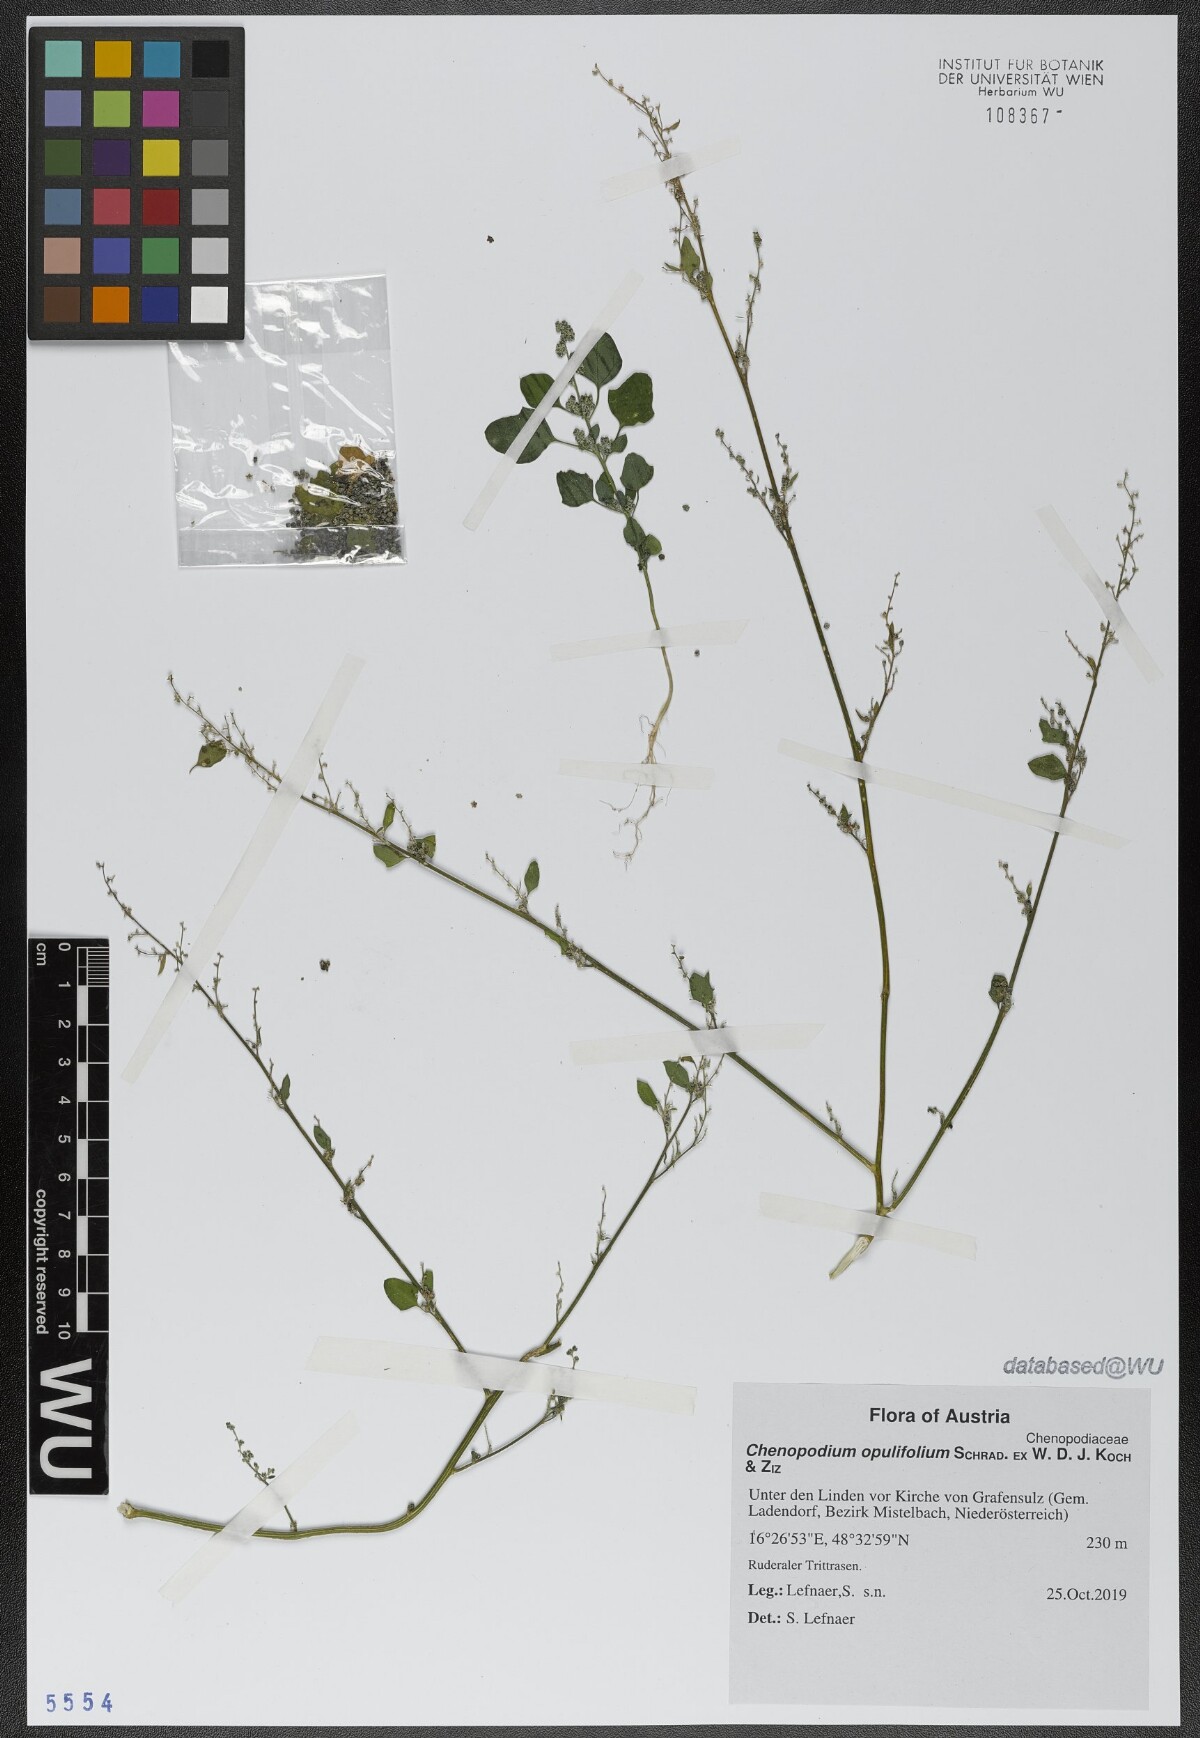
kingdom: Plantae
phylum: Tracheophyta
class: Magnoliopsida
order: Caryophyllales
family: Amaranthaceae
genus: Chenopodium
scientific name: Chenopodium opulifolium
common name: Grey goosefoot
